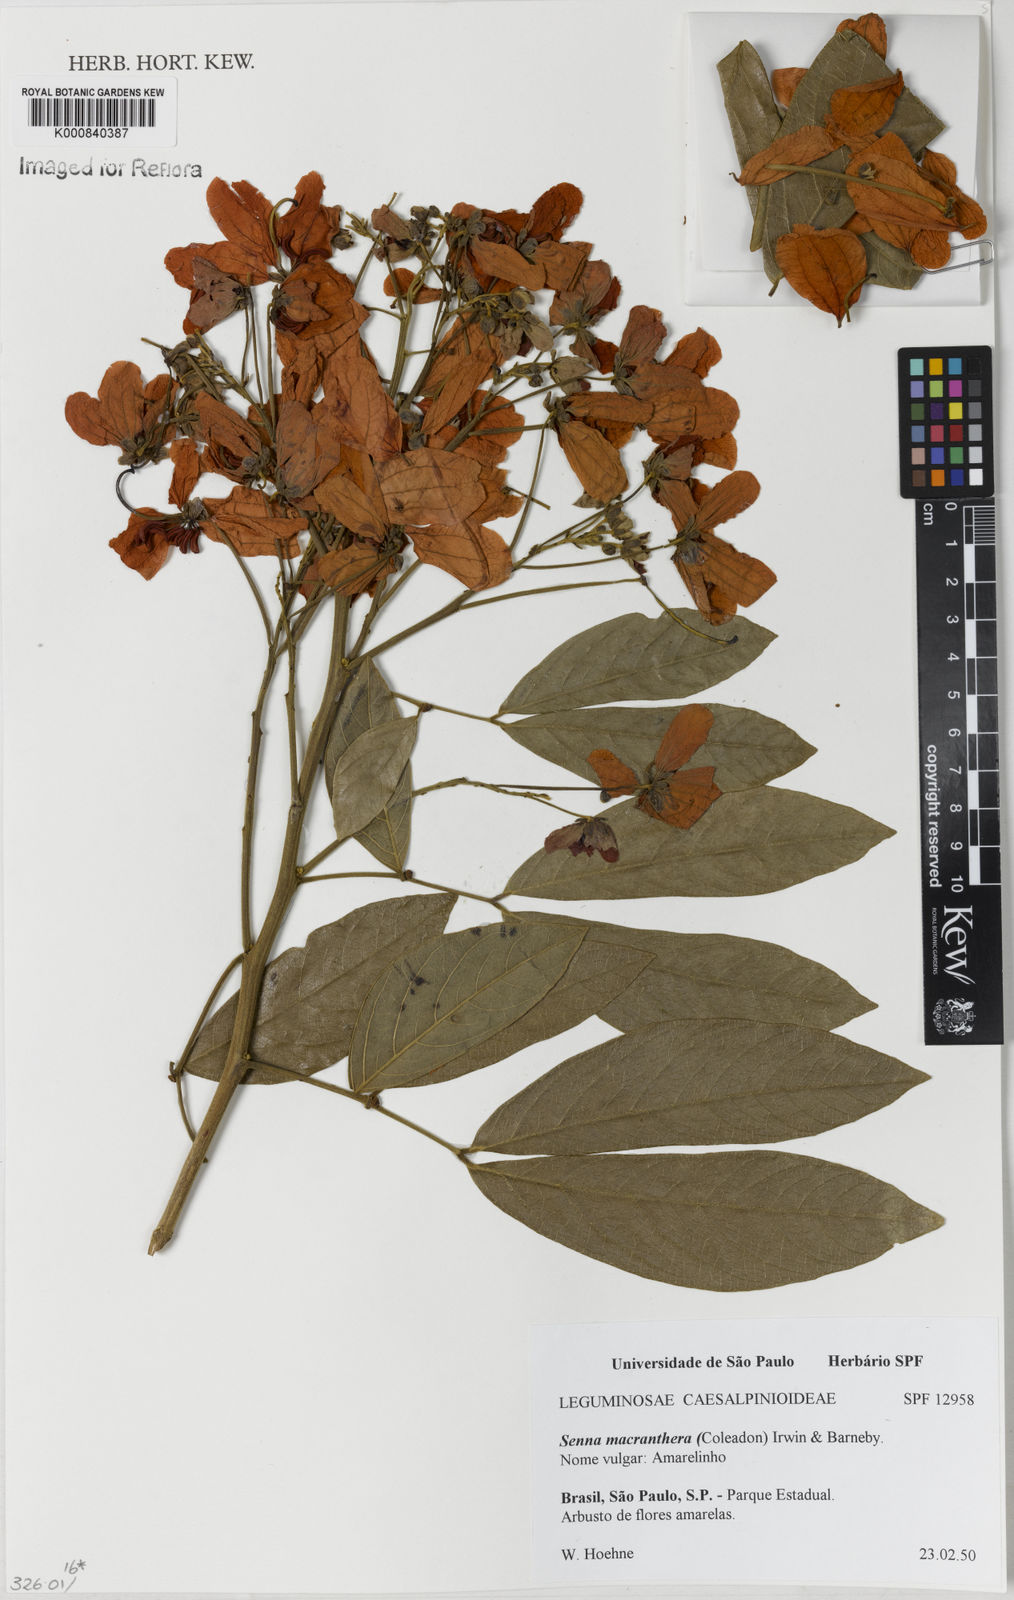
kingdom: Plantae
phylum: Tracheophyta
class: Magnoliopsida
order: Fabales
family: Fabaceae
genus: Senna
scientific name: Senna macranthera
